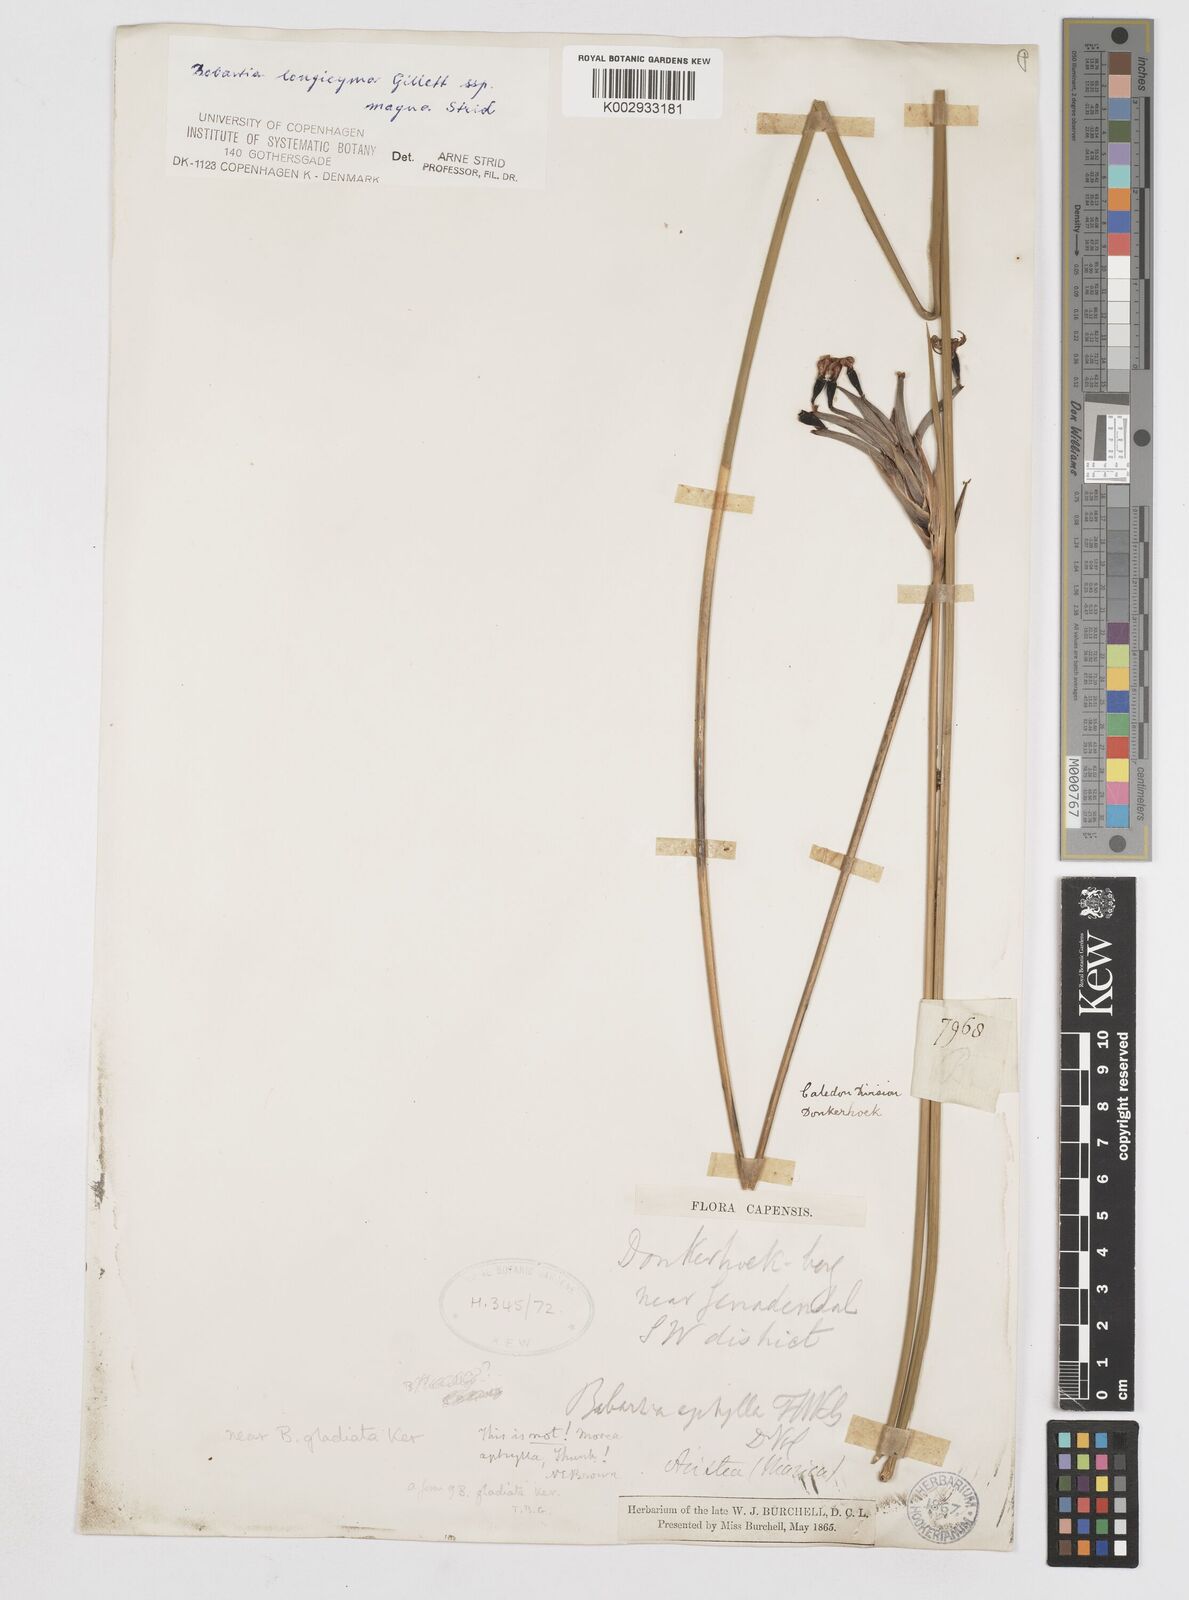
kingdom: Plantae
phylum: Tracheophyta
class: Liliopsida
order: Asparagales
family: Iridaceae
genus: Bobartia
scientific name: Bobartia longicyma
